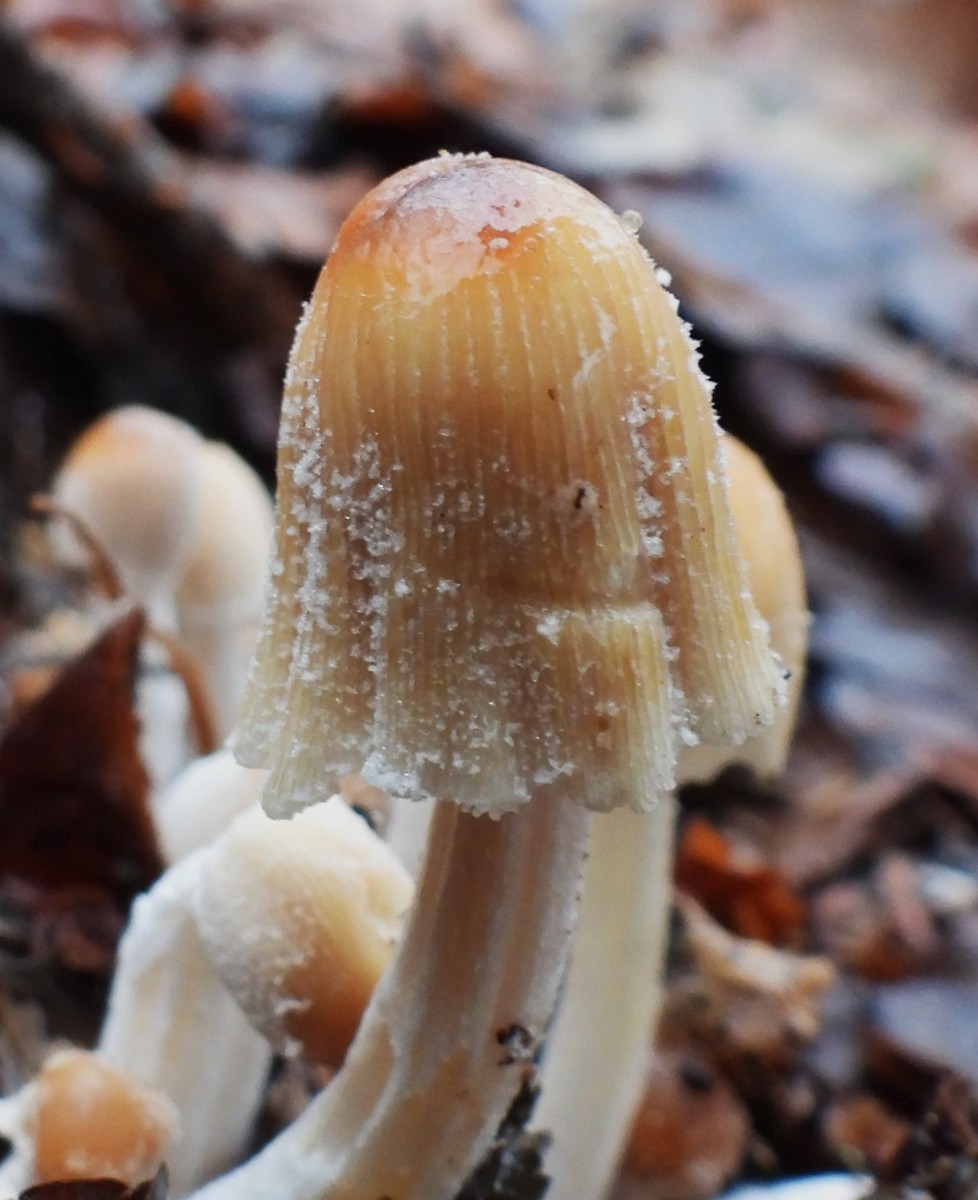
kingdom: Fungi
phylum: Basidiomycota
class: Agaricomycetes
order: Agaricales
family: Psathyrellaceae
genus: Coprinellus
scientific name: Coprinellus micaceus
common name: glimmer-blækhat
